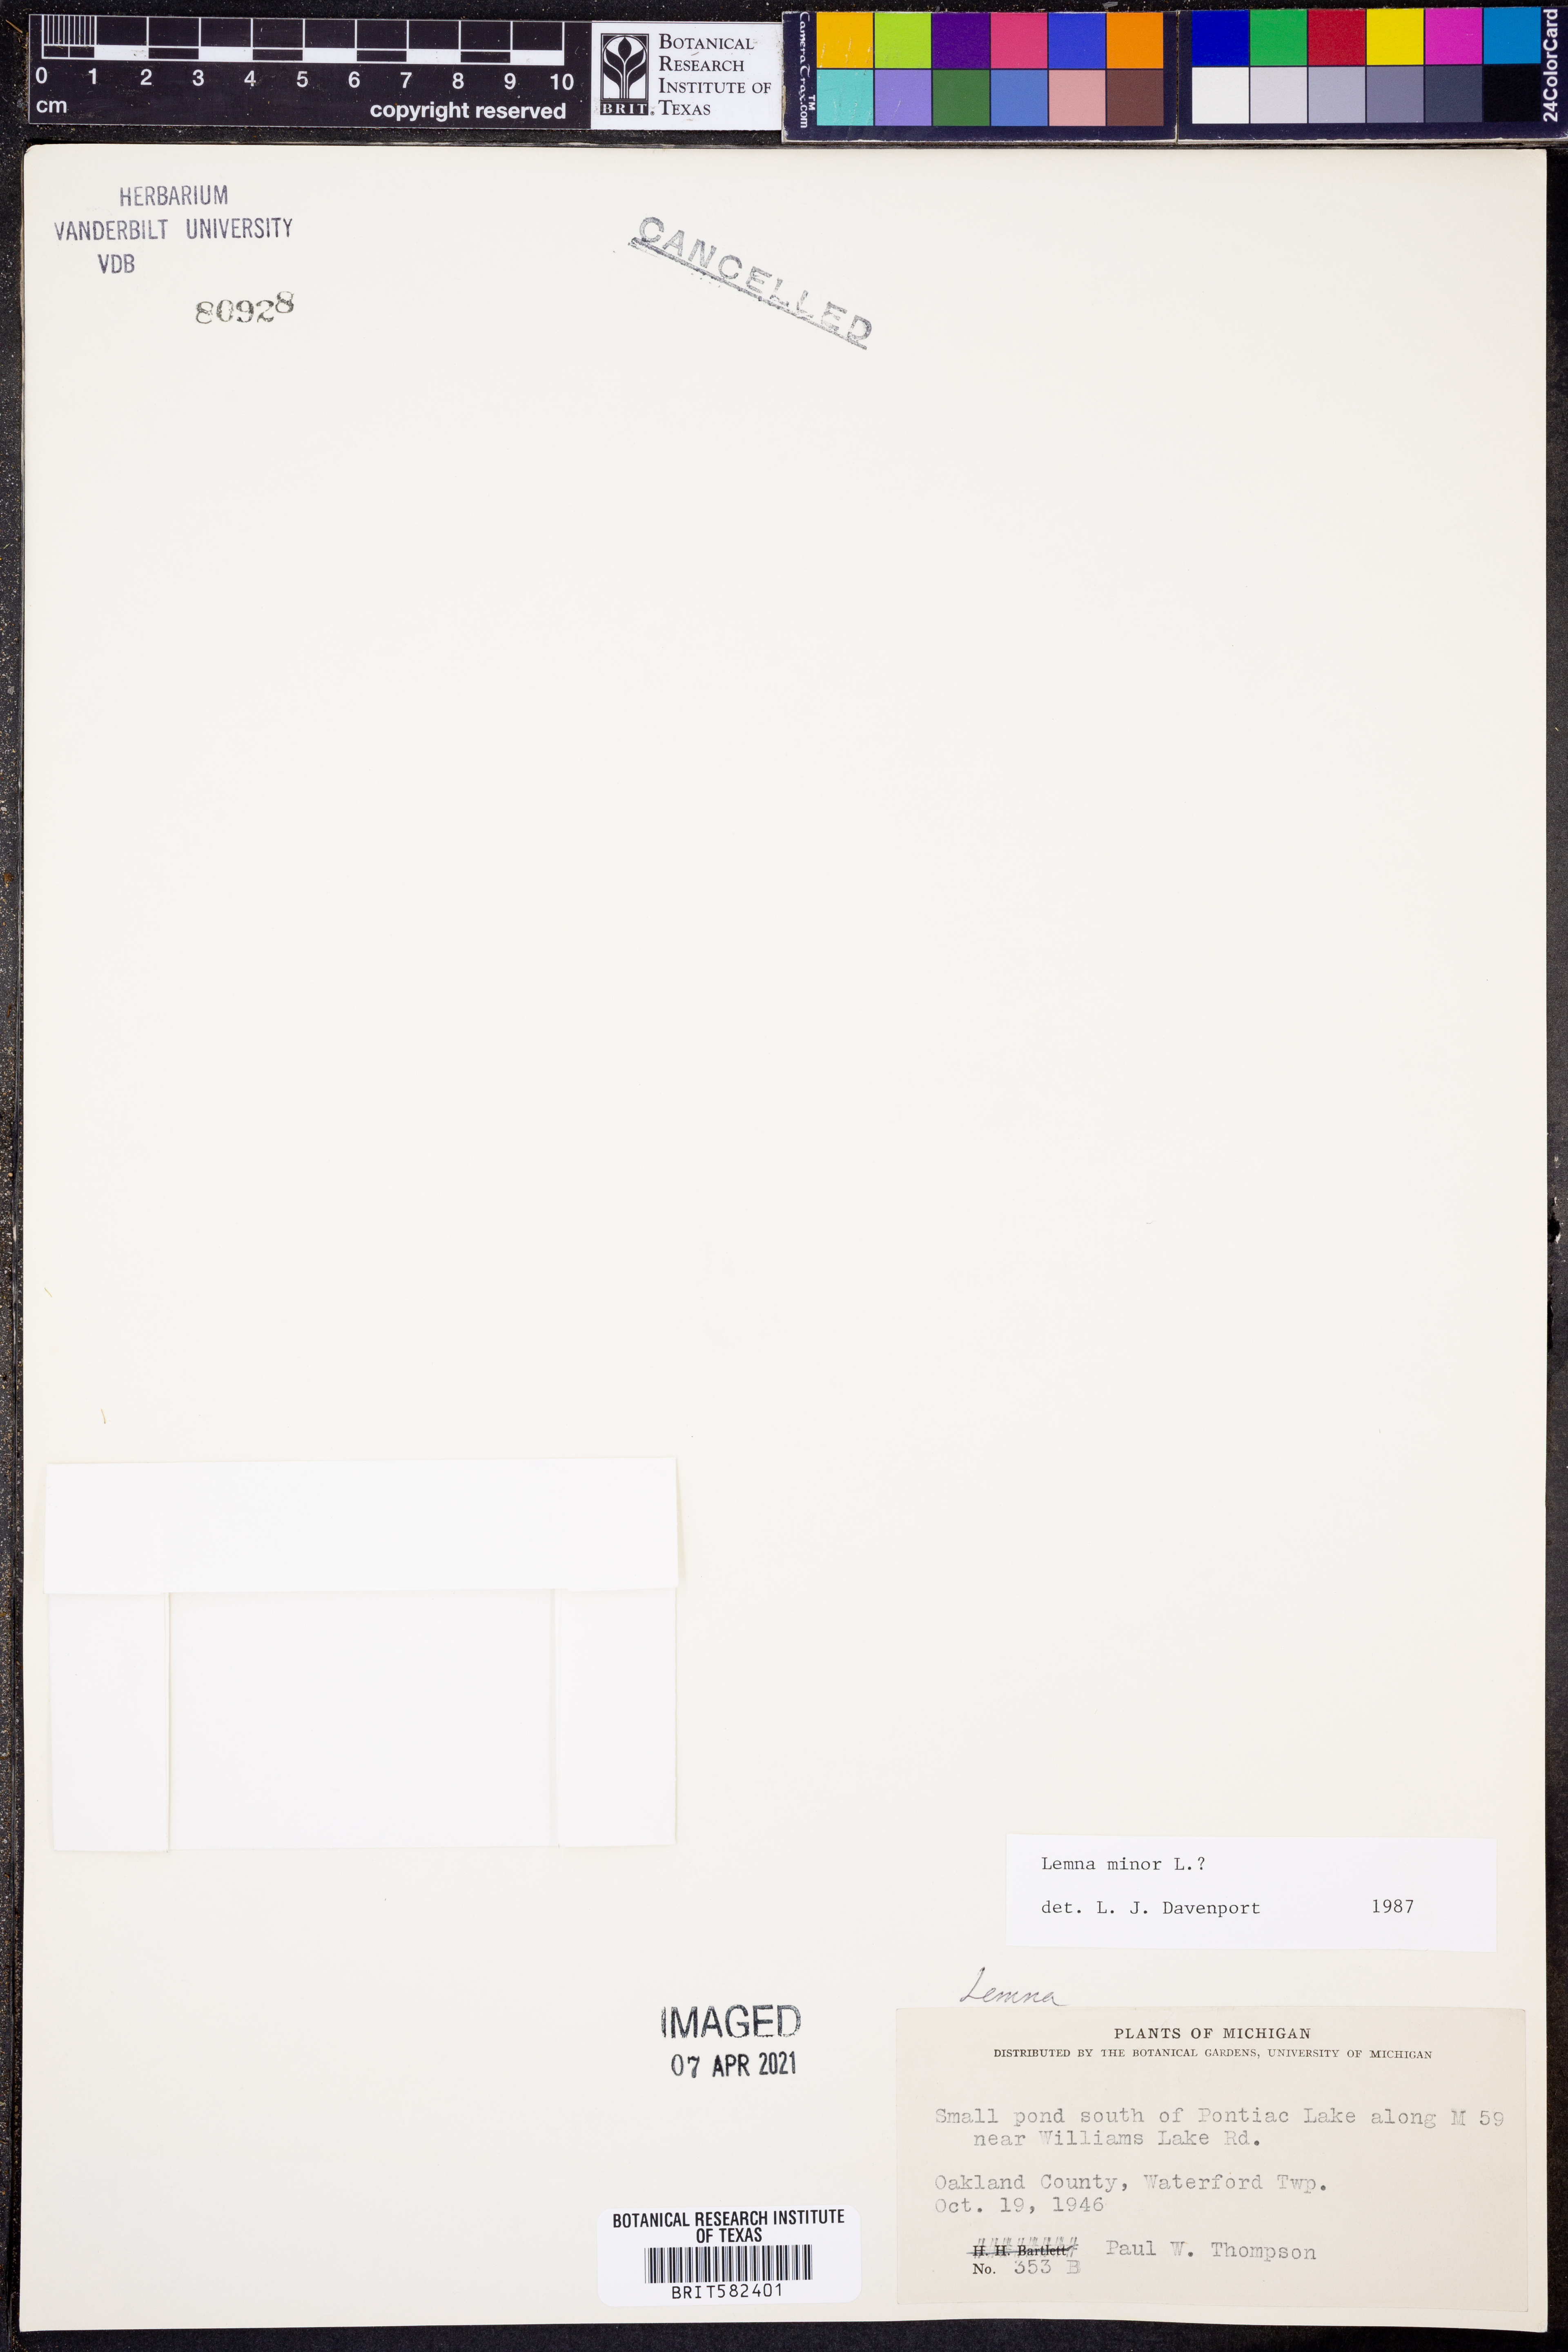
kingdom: Plantae
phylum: Tracheophyta
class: Liliopsida
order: Alismatales
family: Araceae
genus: Lemna
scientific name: Lemna minor
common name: Common duckweed
